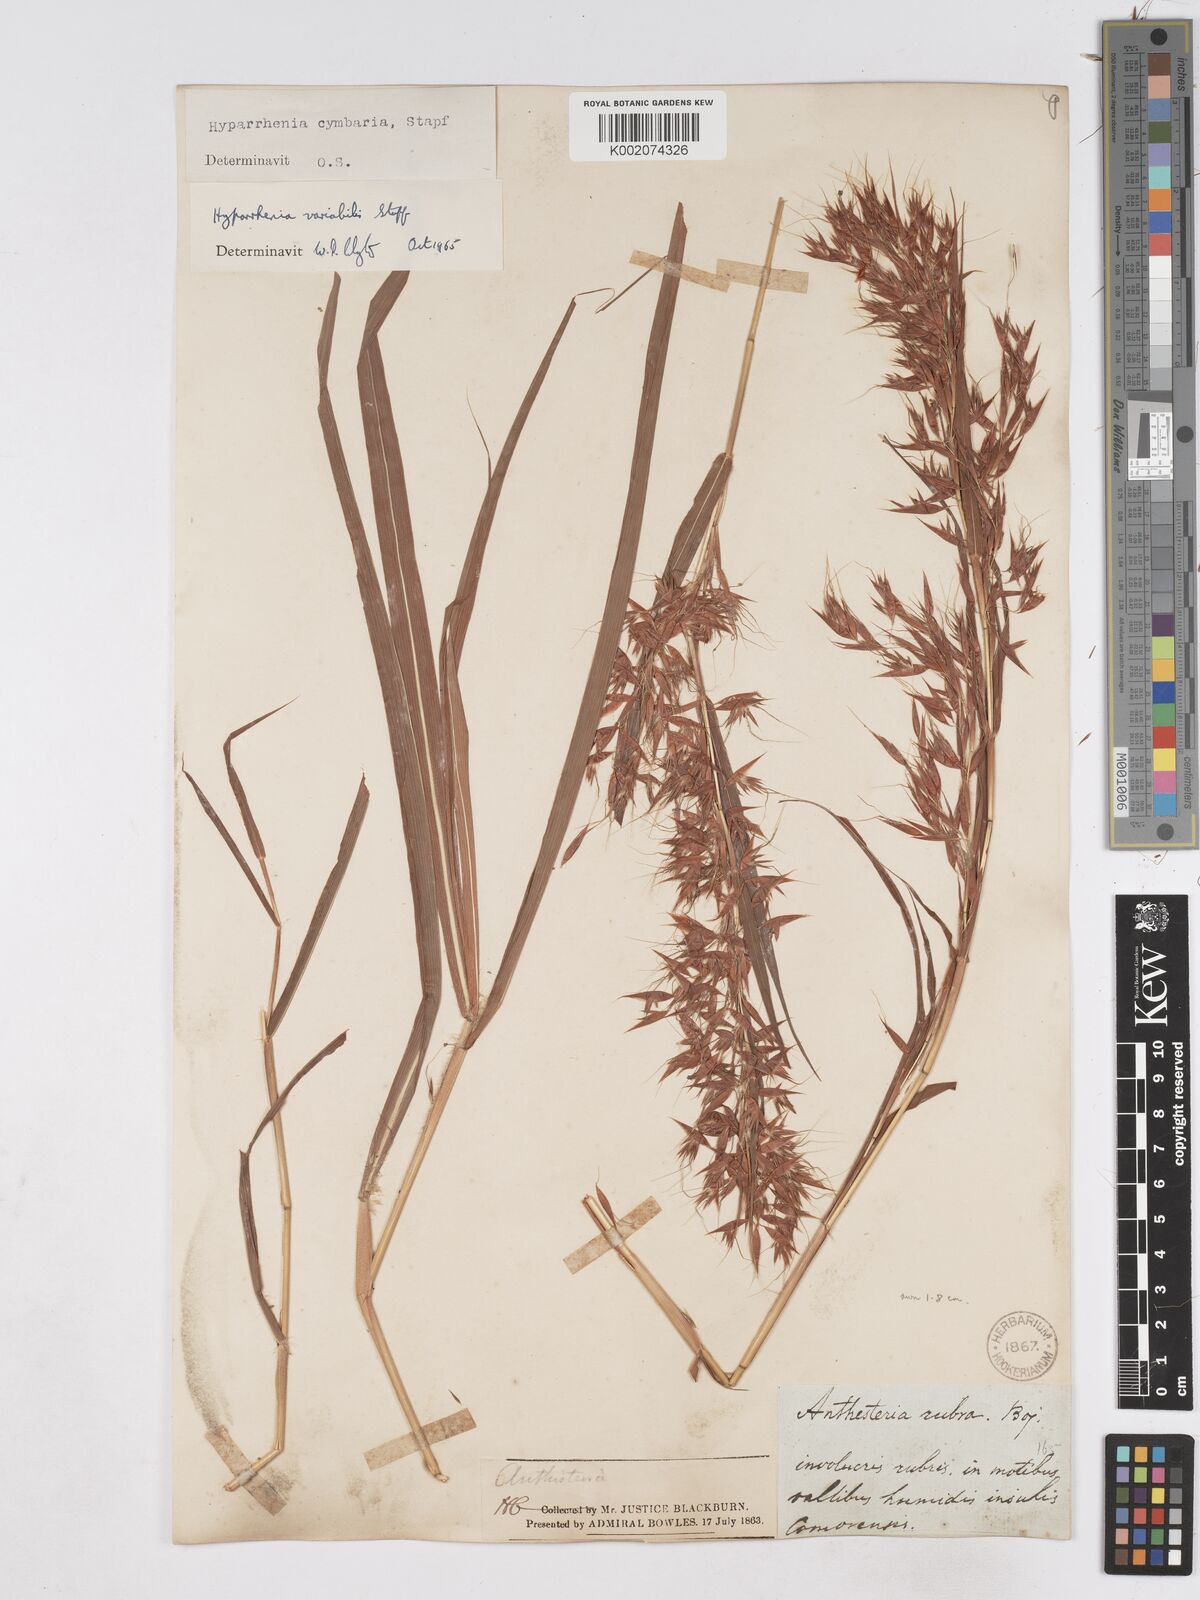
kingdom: Plantae
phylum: Tracheophyta
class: Liliopsida
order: Poales
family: Poaceae
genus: Hyparrhenia
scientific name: Hyparrhenia variabilis
